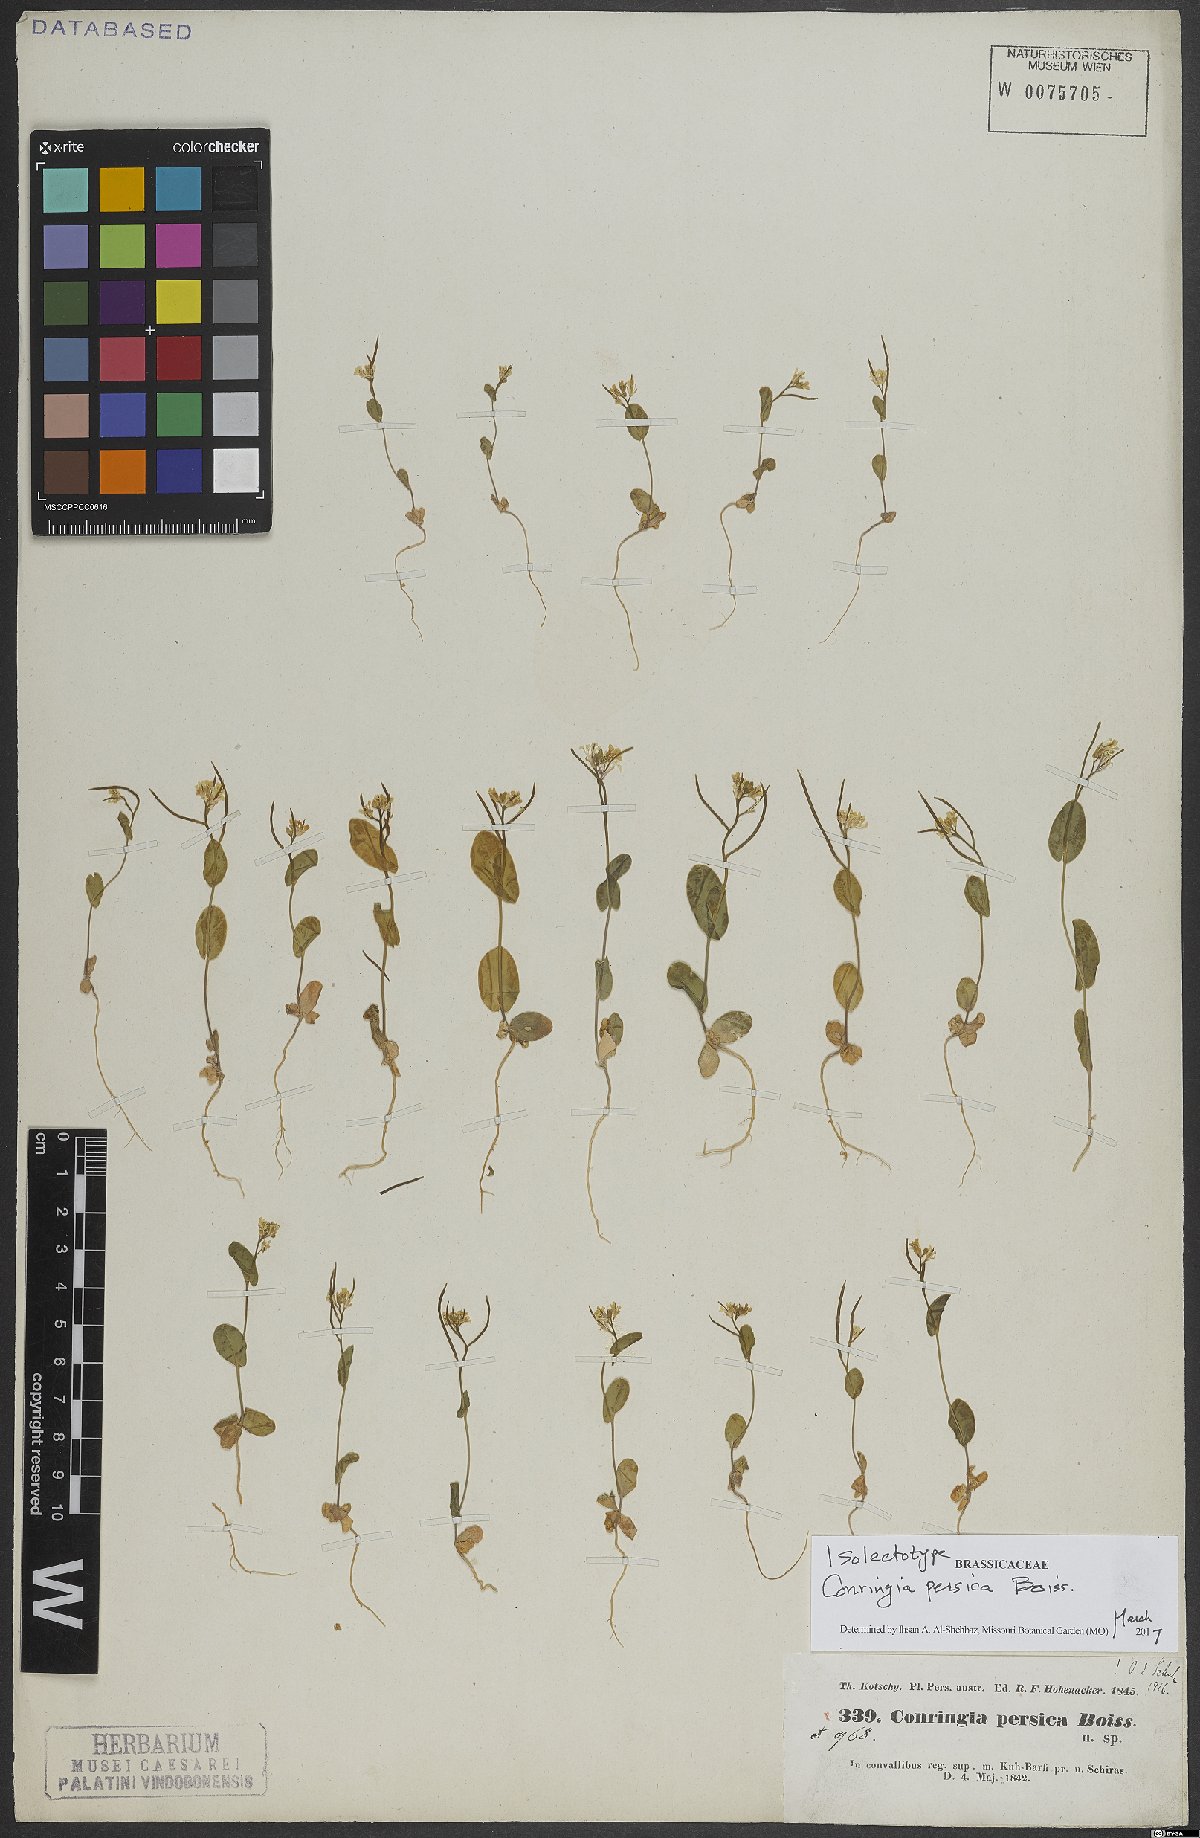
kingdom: Plantae
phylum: Tracheophyta
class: Magnoliopsida
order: Brassicales
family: Brassicaceae
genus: Conringia
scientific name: Conringia persica
